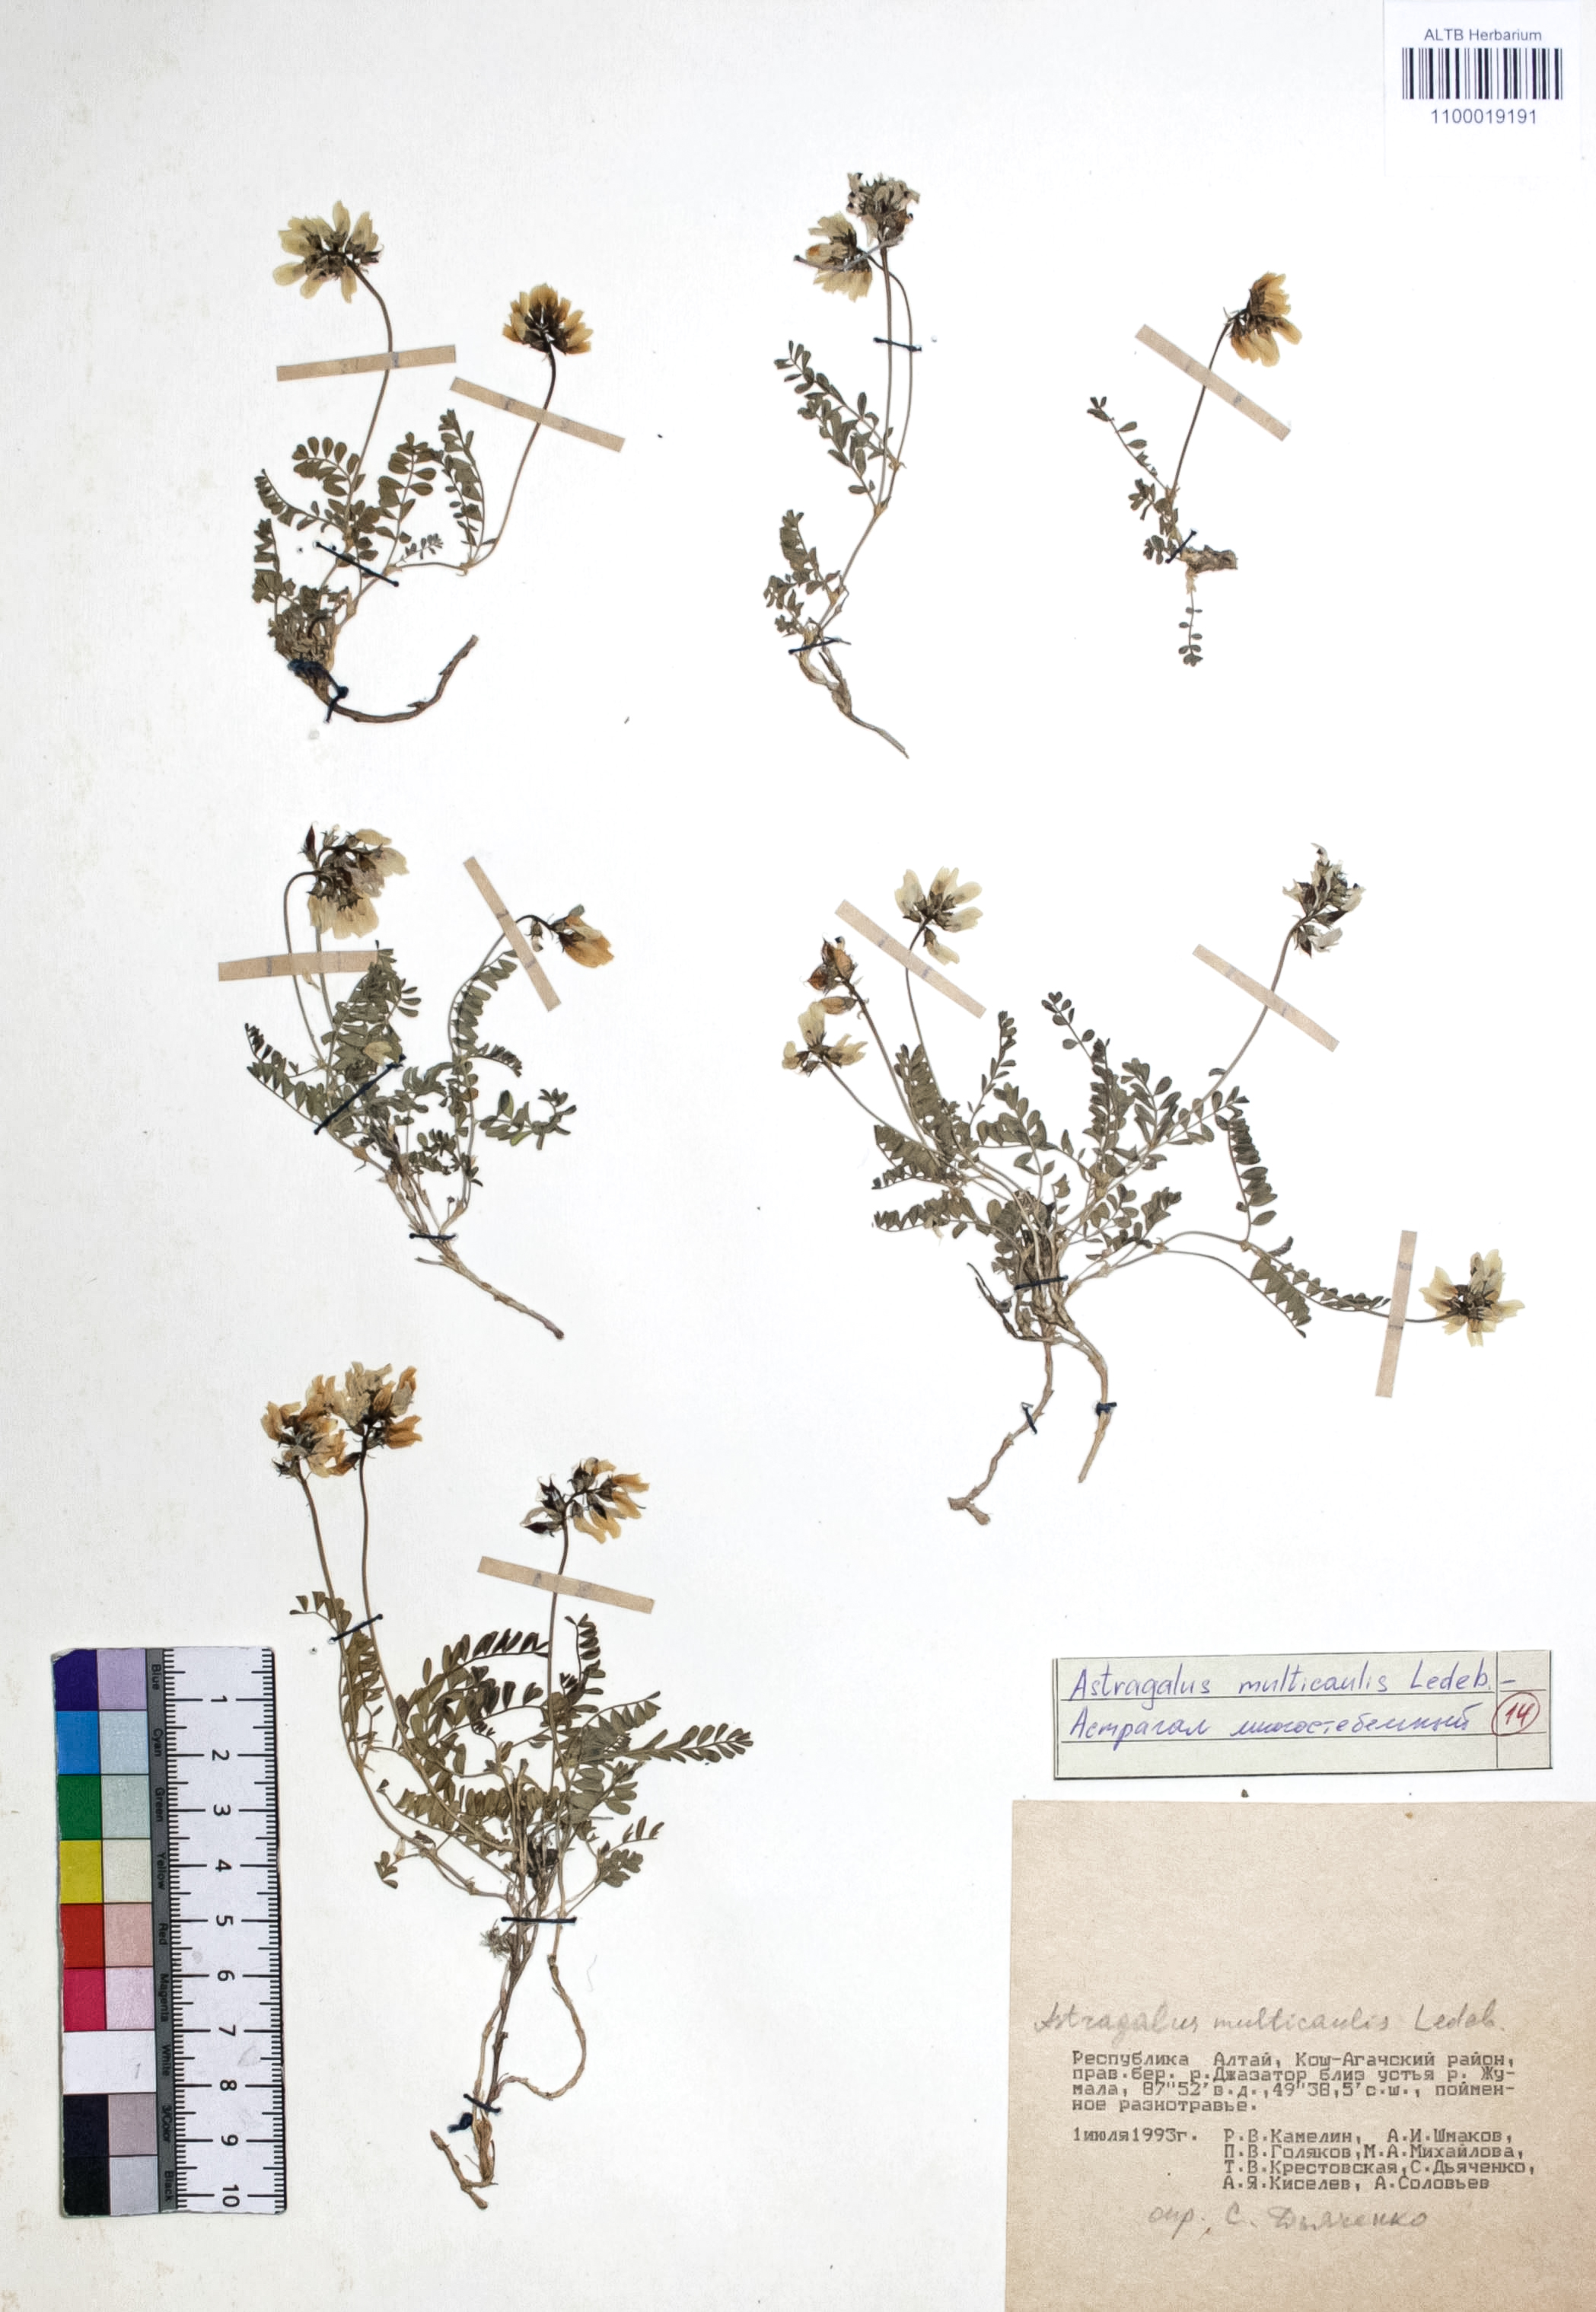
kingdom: Plantae
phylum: Tracheophyta
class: Magnoliopsida
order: Fabales
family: Fabaceae
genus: Astragalus
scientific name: Astragalus leptostachys
